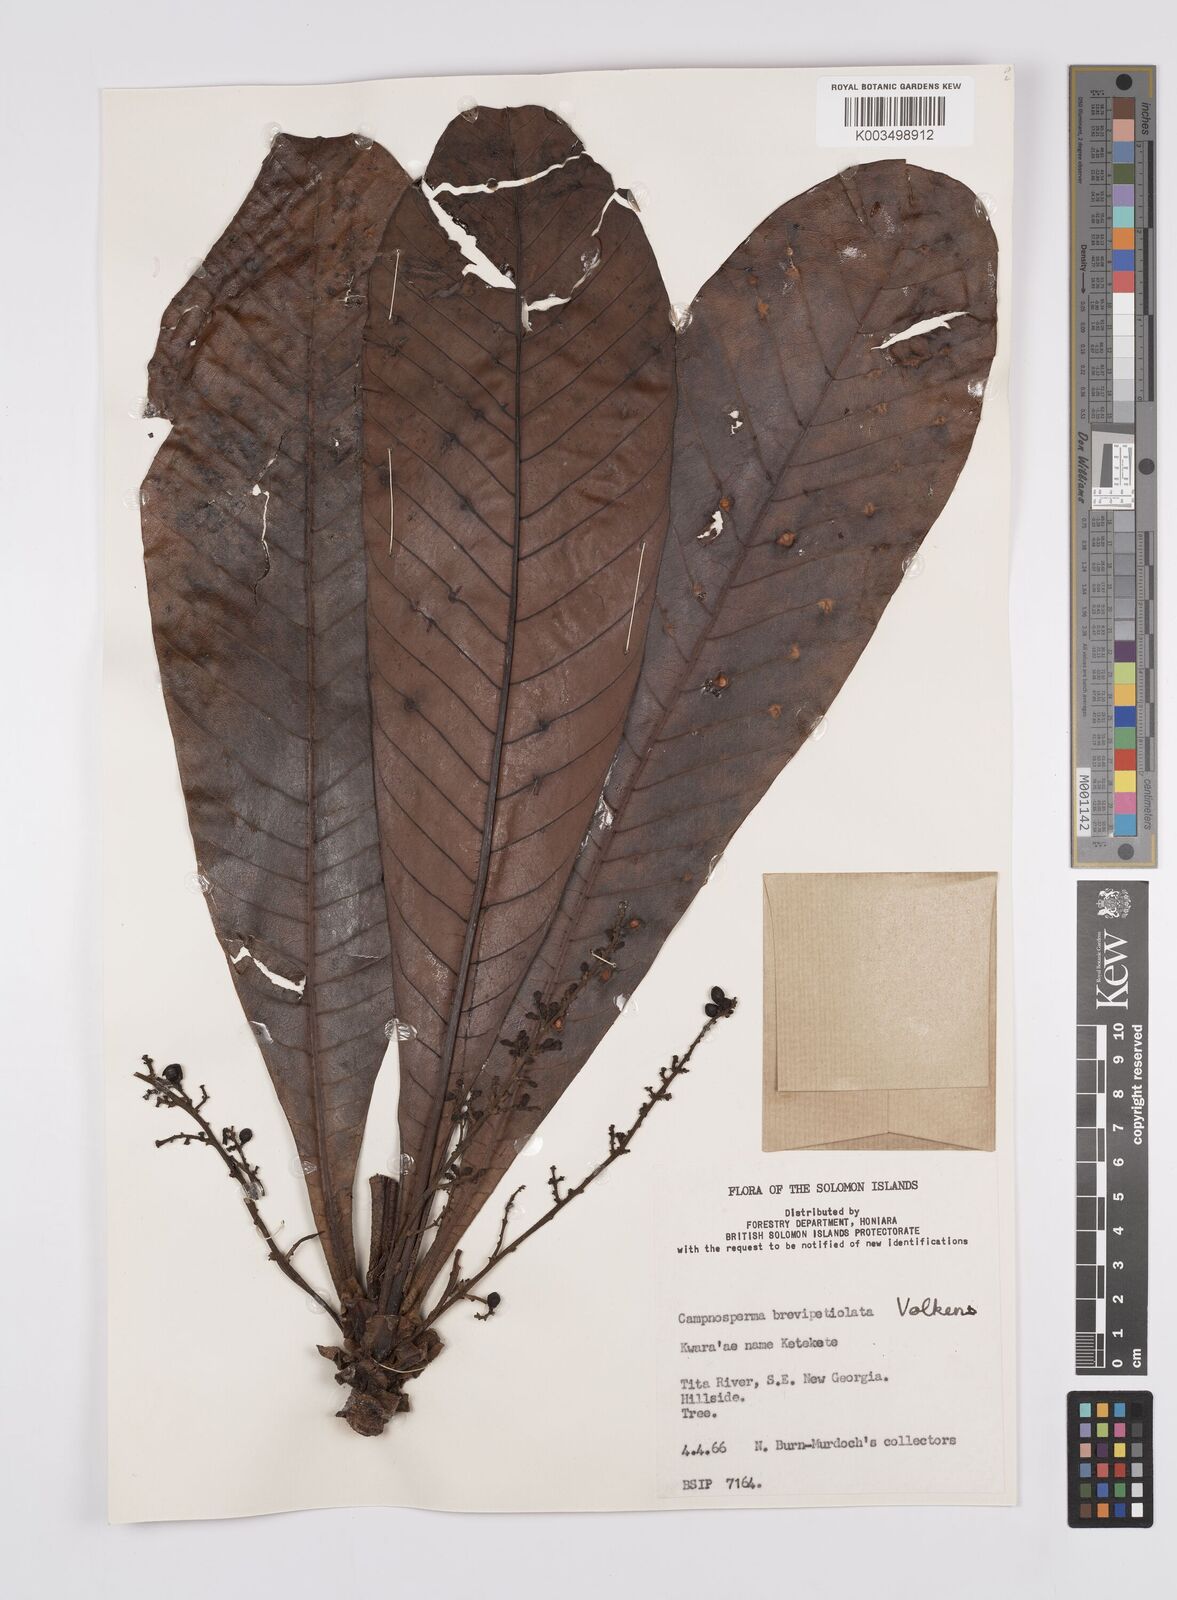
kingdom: Plantae
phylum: Tracheophyta
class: Magnoliopsida
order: Sapindales
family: Anacardiaceae
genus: Campnosperma
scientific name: Campnosperma brevipetiolatum
